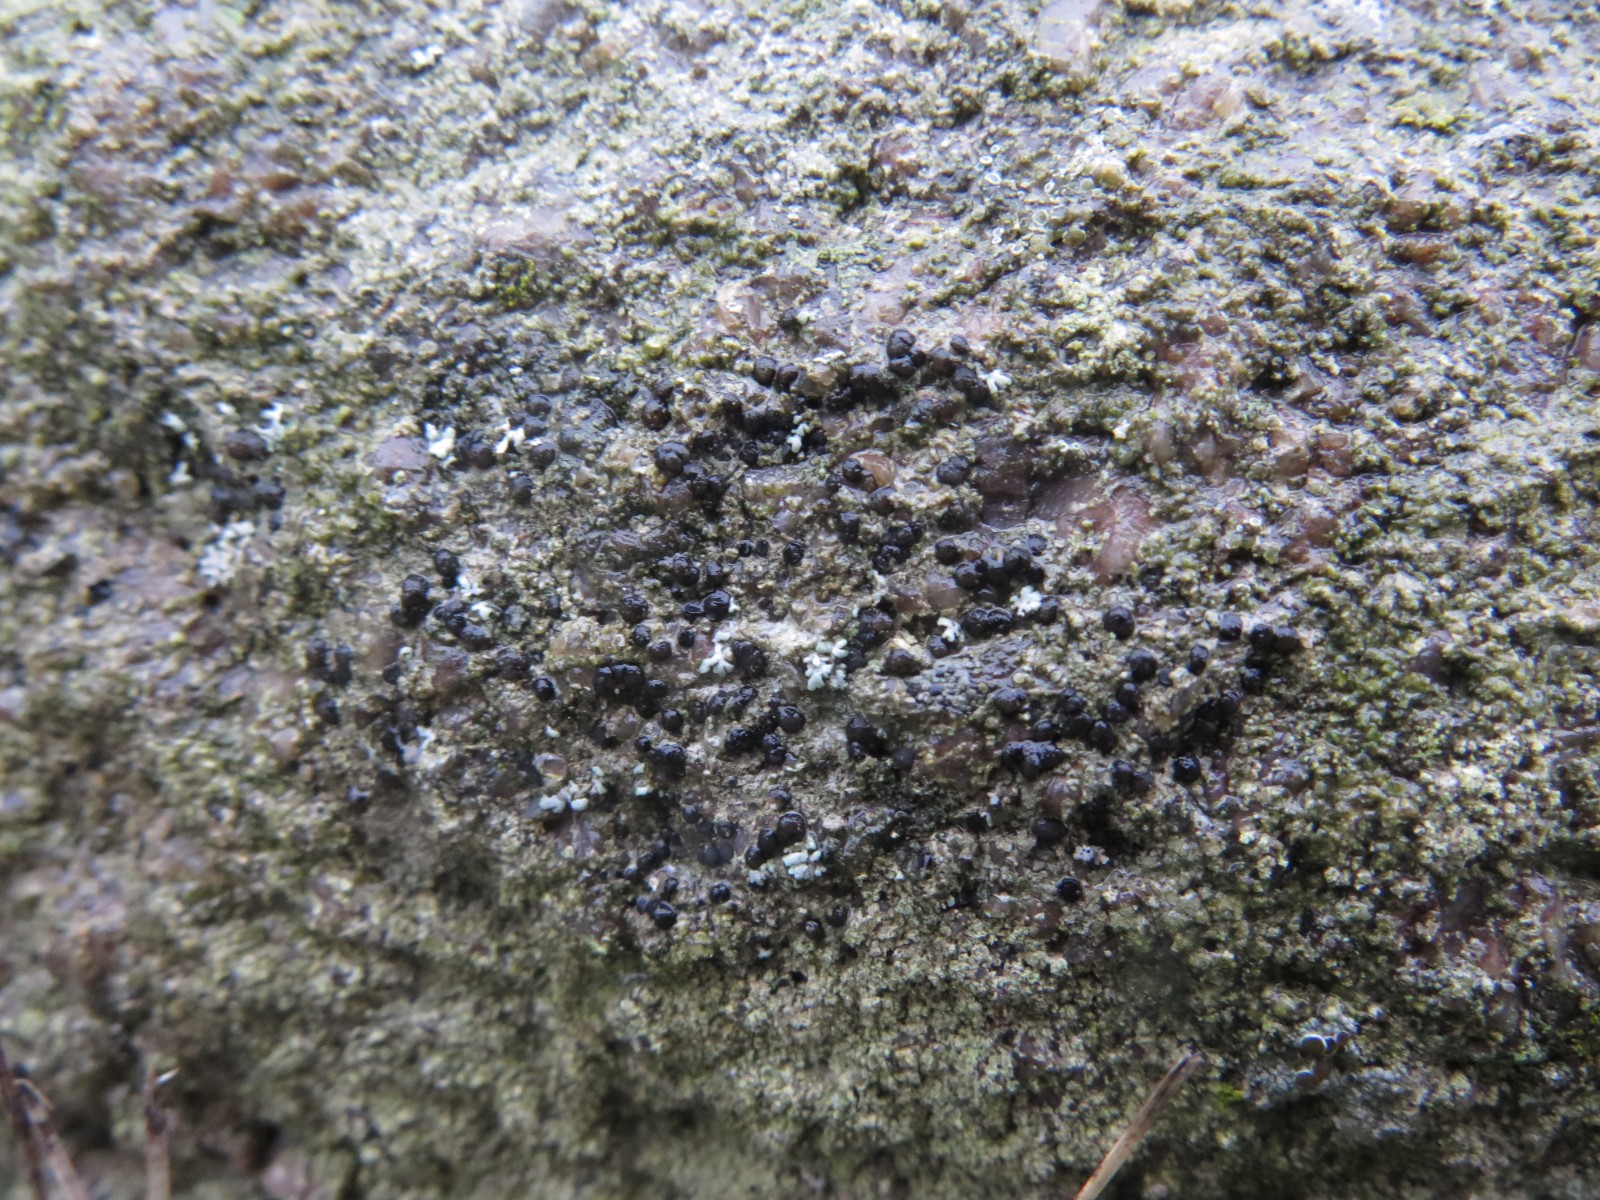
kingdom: Fungi
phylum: Ascomycota
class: Lecanoromycetes
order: Lecanorales
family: Lecanoraceae
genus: Lecidella
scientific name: Lecidella scabra
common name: skurvet skivelav
